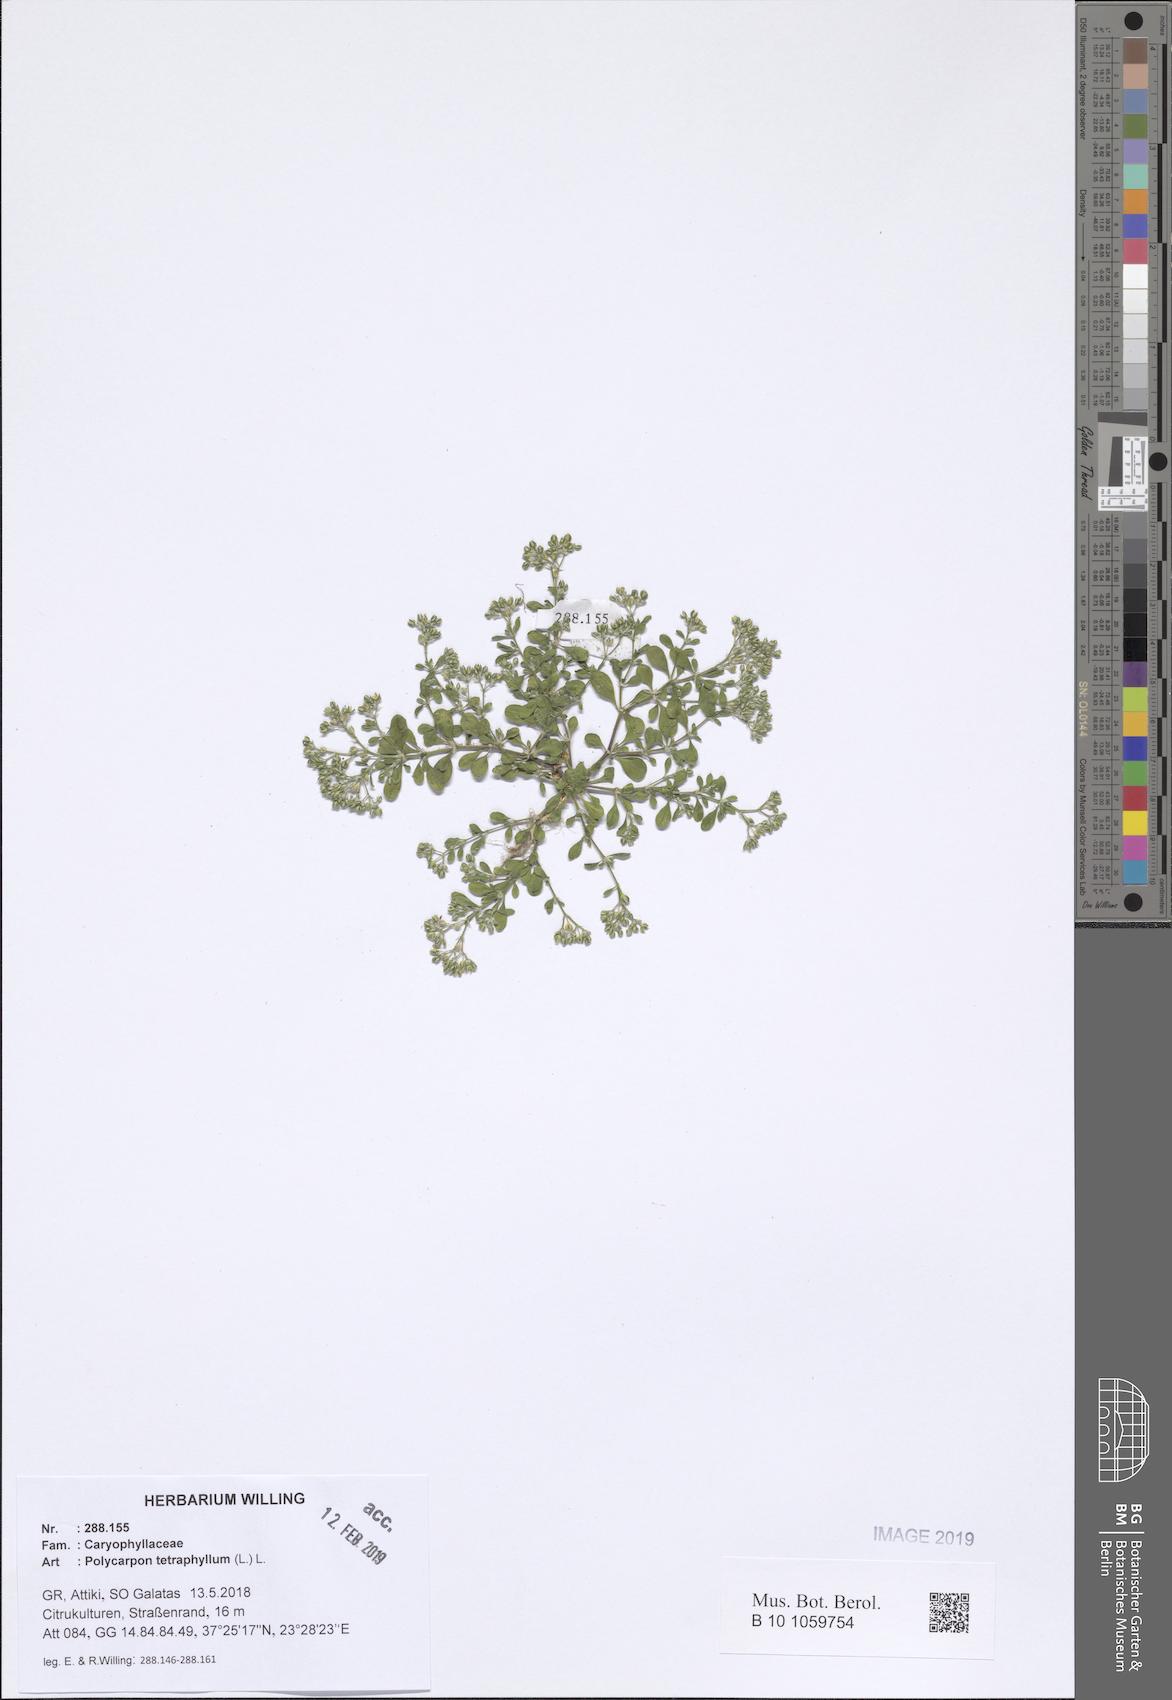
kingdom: Plantae
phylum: Tracheophyta
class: Magnoliopsida
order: Caryophyllales
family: Caryophyllaceae
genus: Polycarpon
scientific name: Polycarpon tetraphyllum
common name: Four-leaved all-seed
